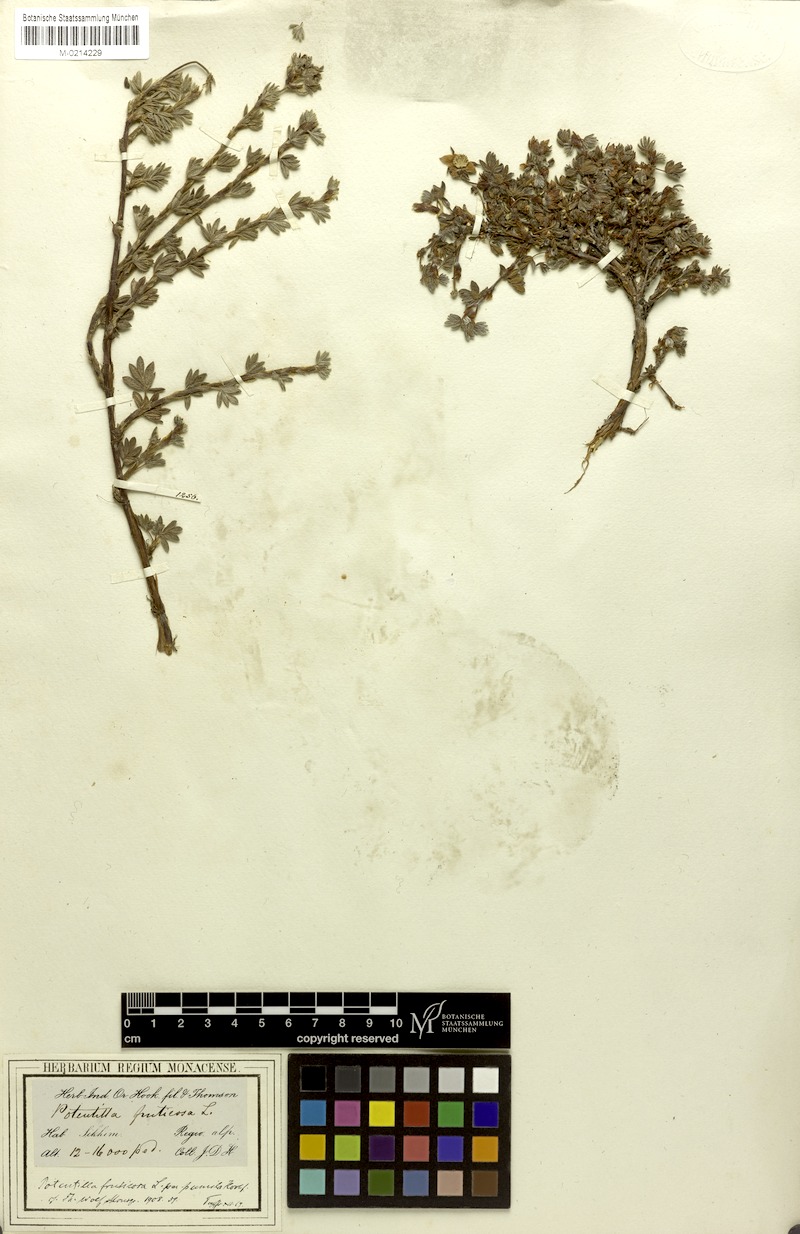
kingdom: Plantae
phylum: Tracheophyta
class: Magnoliopsida
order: Rosales
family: Rosaceae
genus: Dasiphora
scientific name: Dasiphora dryadanthoides
